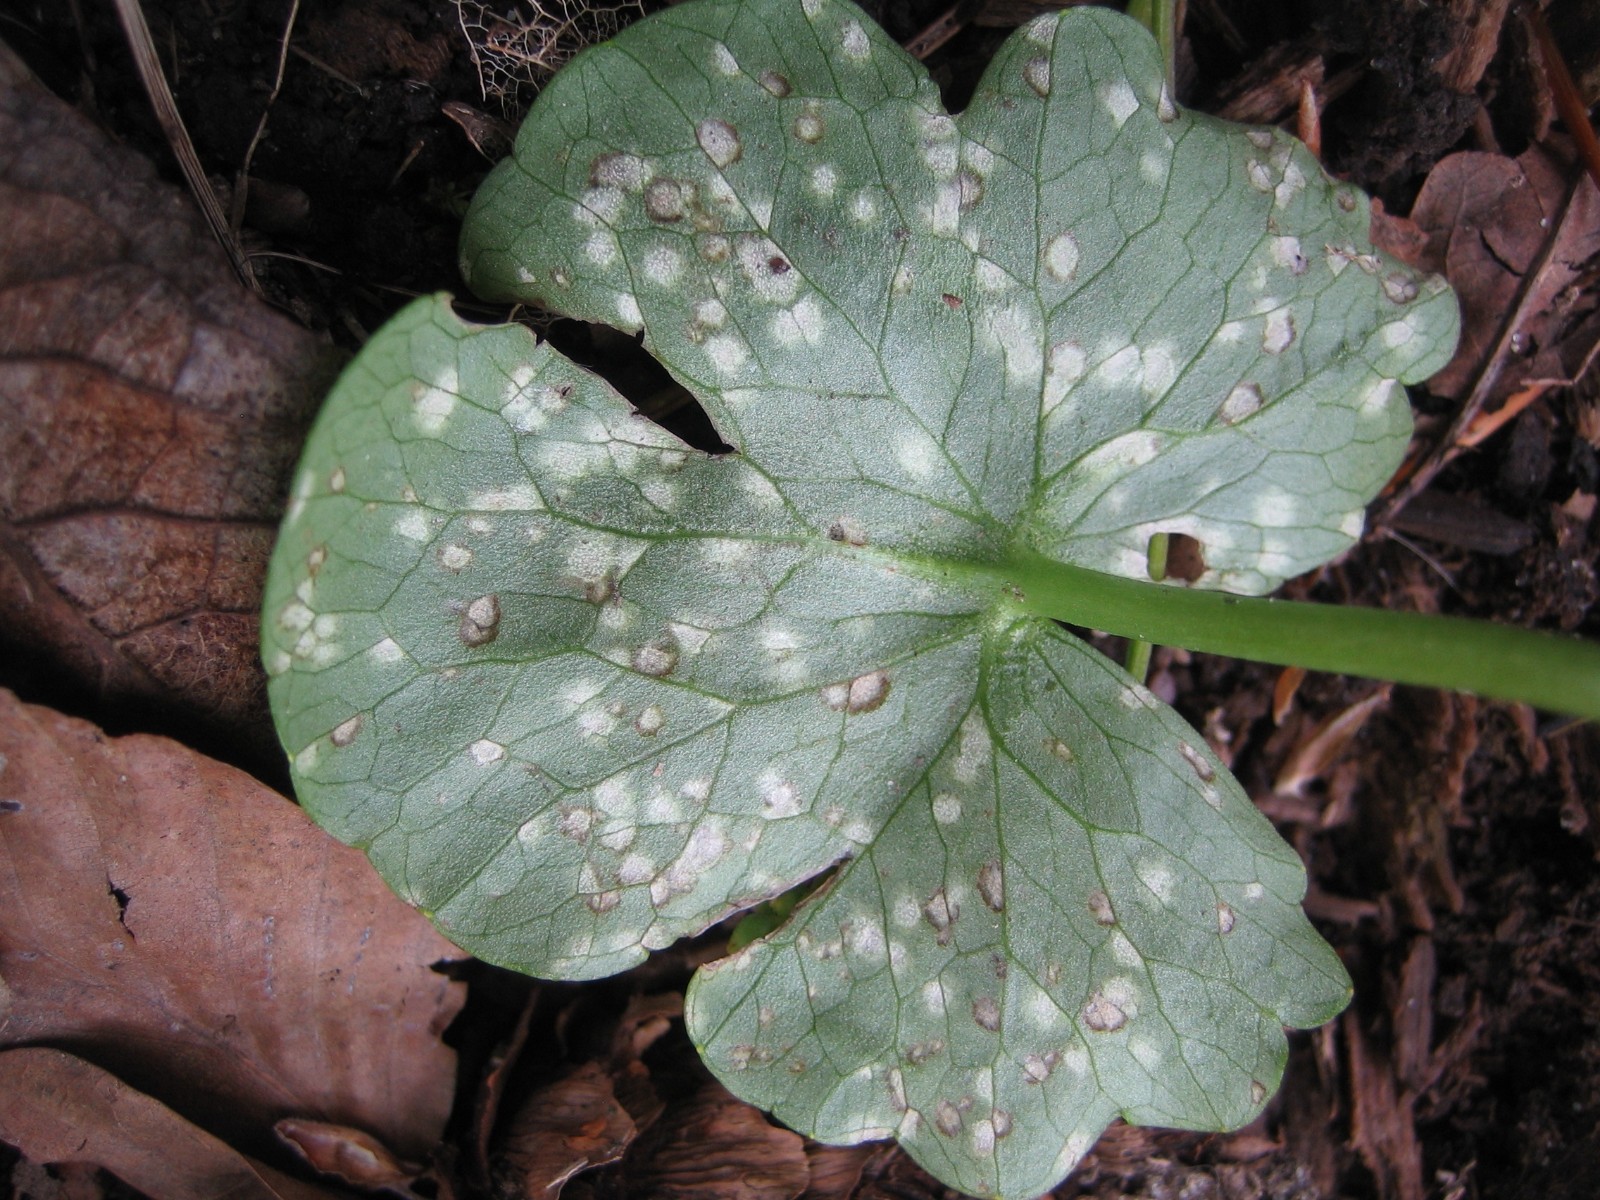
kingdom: Fungi
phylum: Basidiomycota
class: Exobasidiomycetes
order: Entylomatales
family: Entylomataceae
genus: Entyloma
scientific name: Entyloma ficariae
